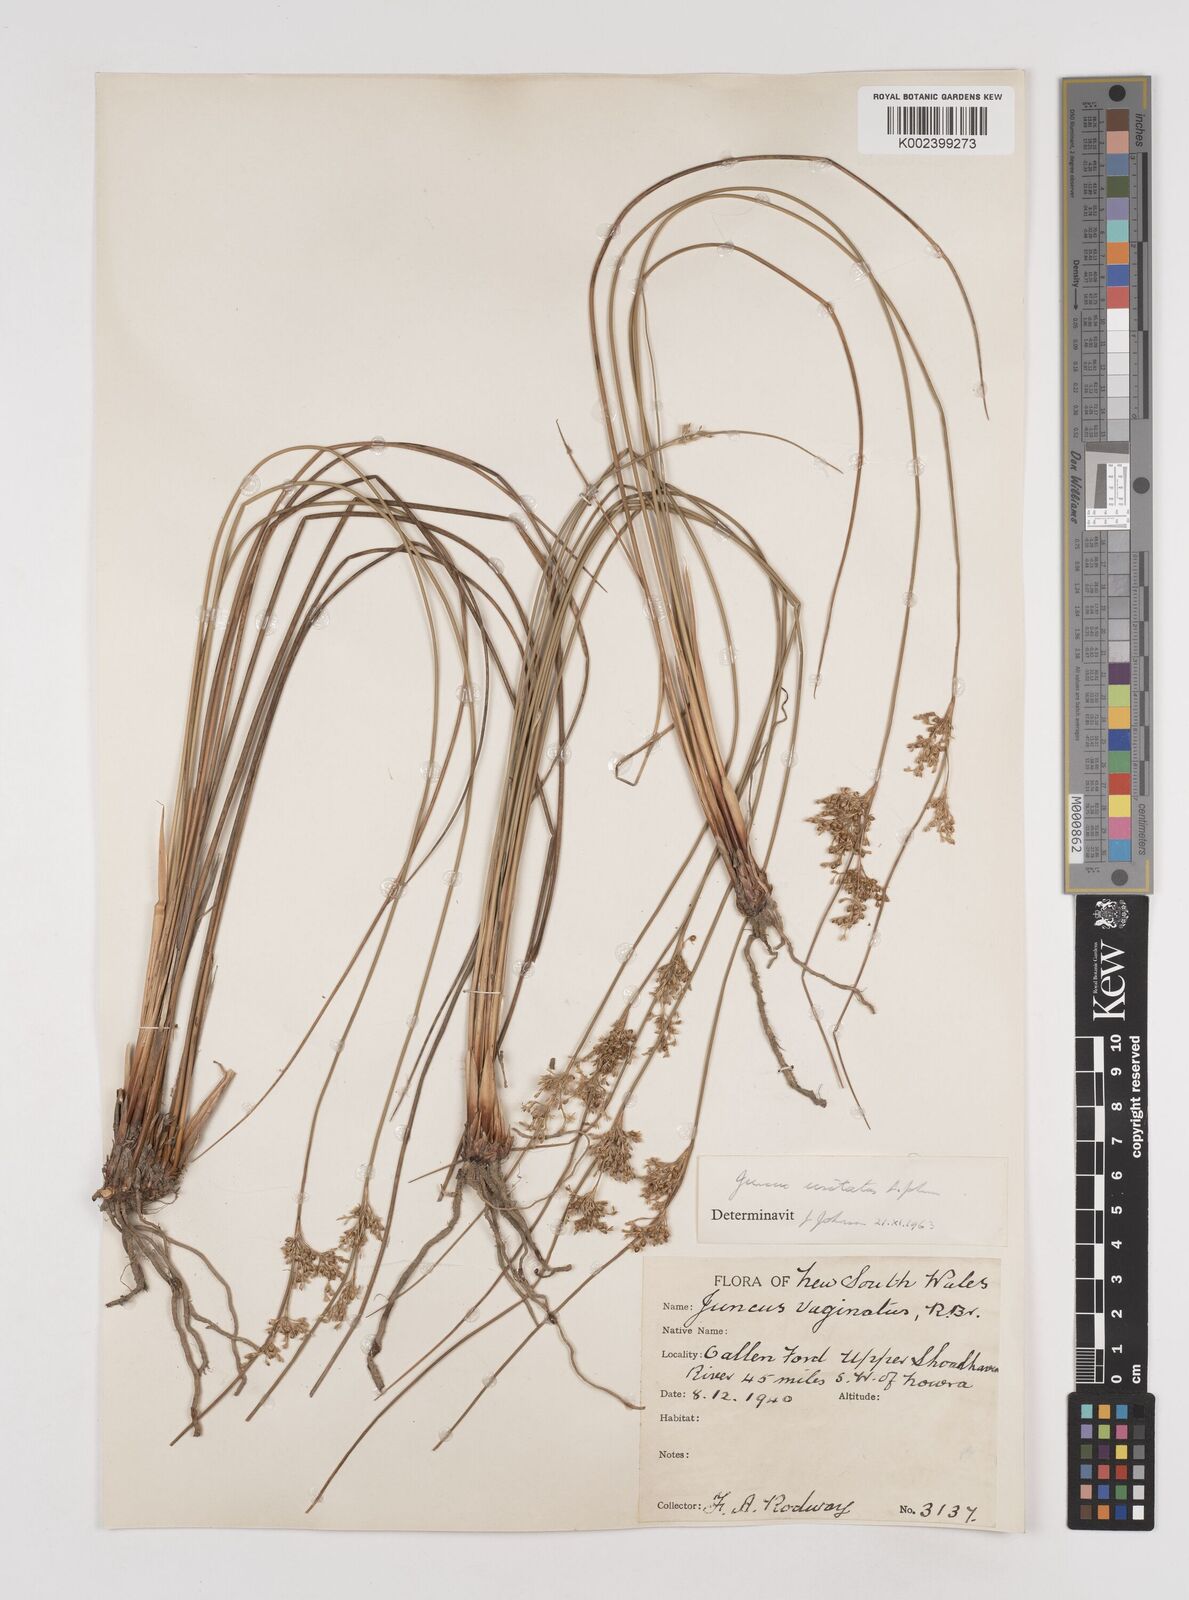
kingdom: Plantae
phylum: Tracheophyta
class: Liliopsida
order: Poales
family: Juncaceae
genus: Juncus
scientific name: Juncus usitatus
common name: Rush
